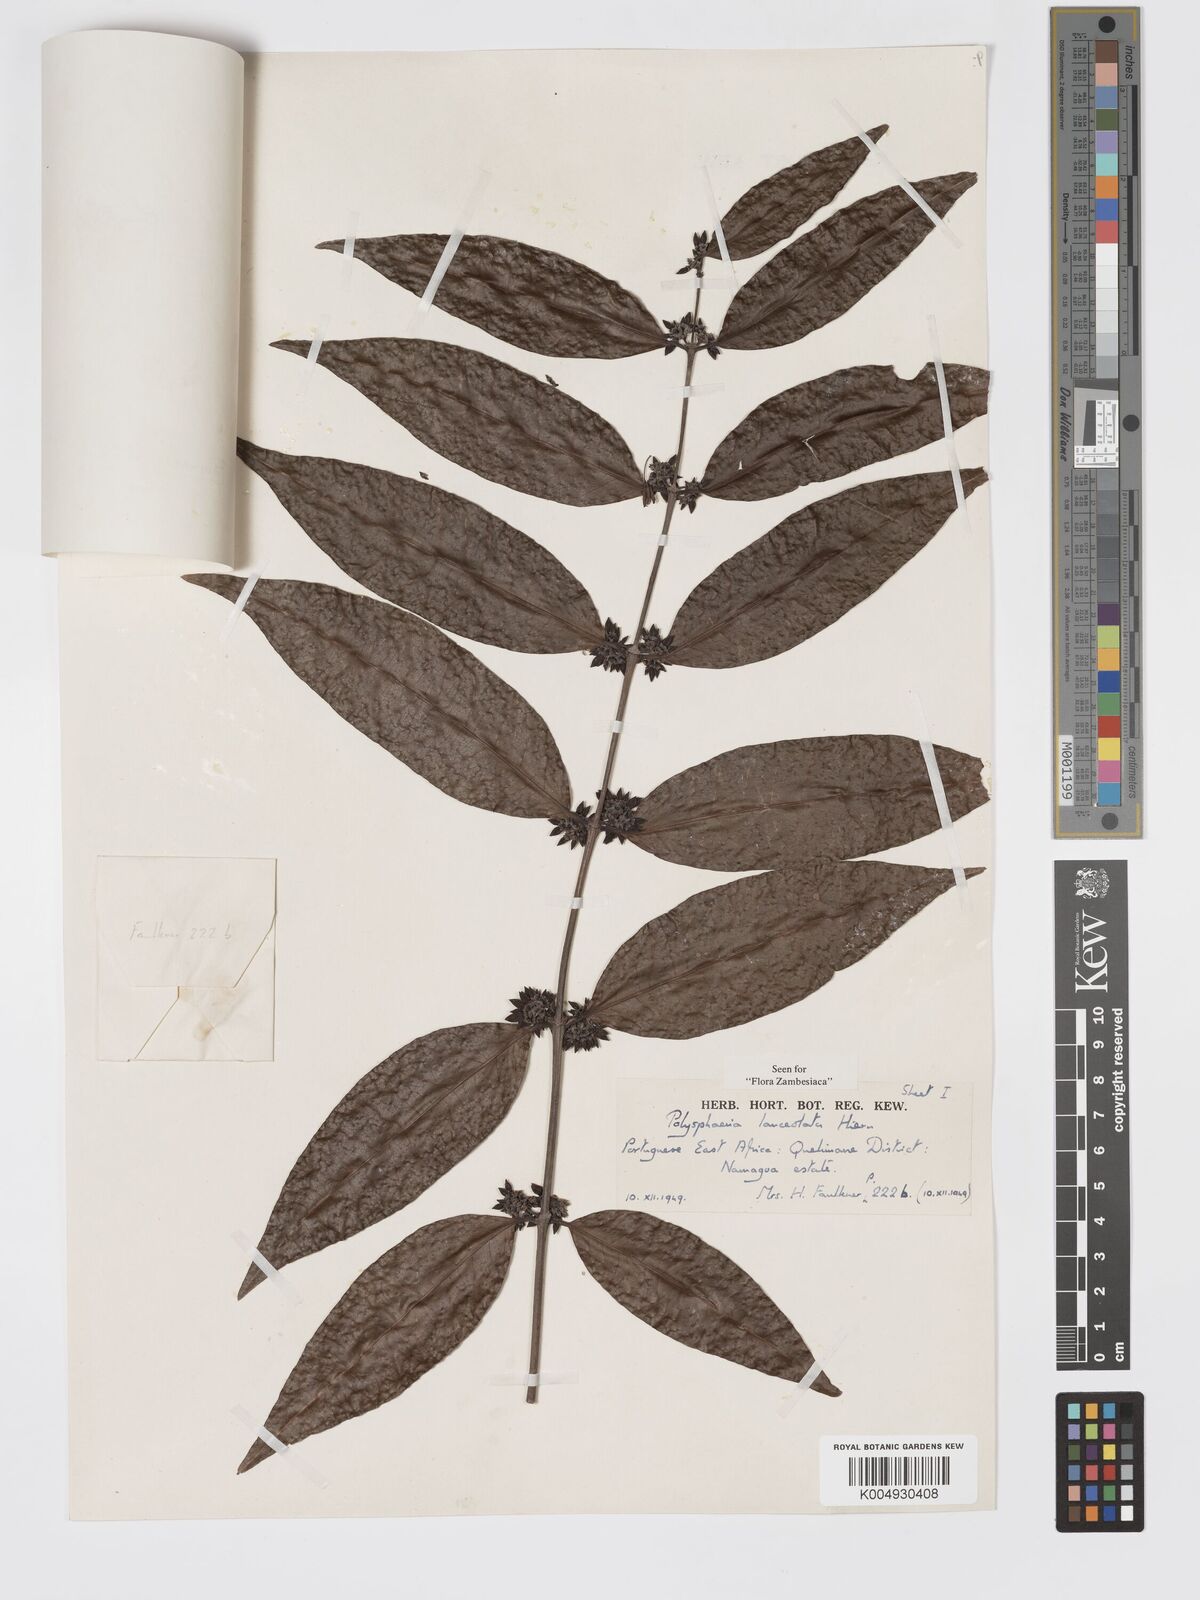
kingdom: Plantae
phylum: Tracheophyta
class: Magnoliopsida
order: Gentianales
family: Rubiaceae
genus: Polysphaeria
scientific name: Polysphaeria lanceolata
